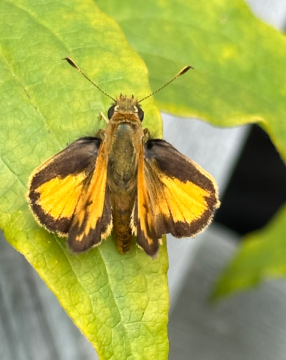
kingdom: Animalia
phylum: Arthropoda
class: Insecta
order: Lepidoptera
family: Hesperiidae
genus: Anthoptus
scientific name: Anthoptus epictetus
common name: Trailside Skipper
